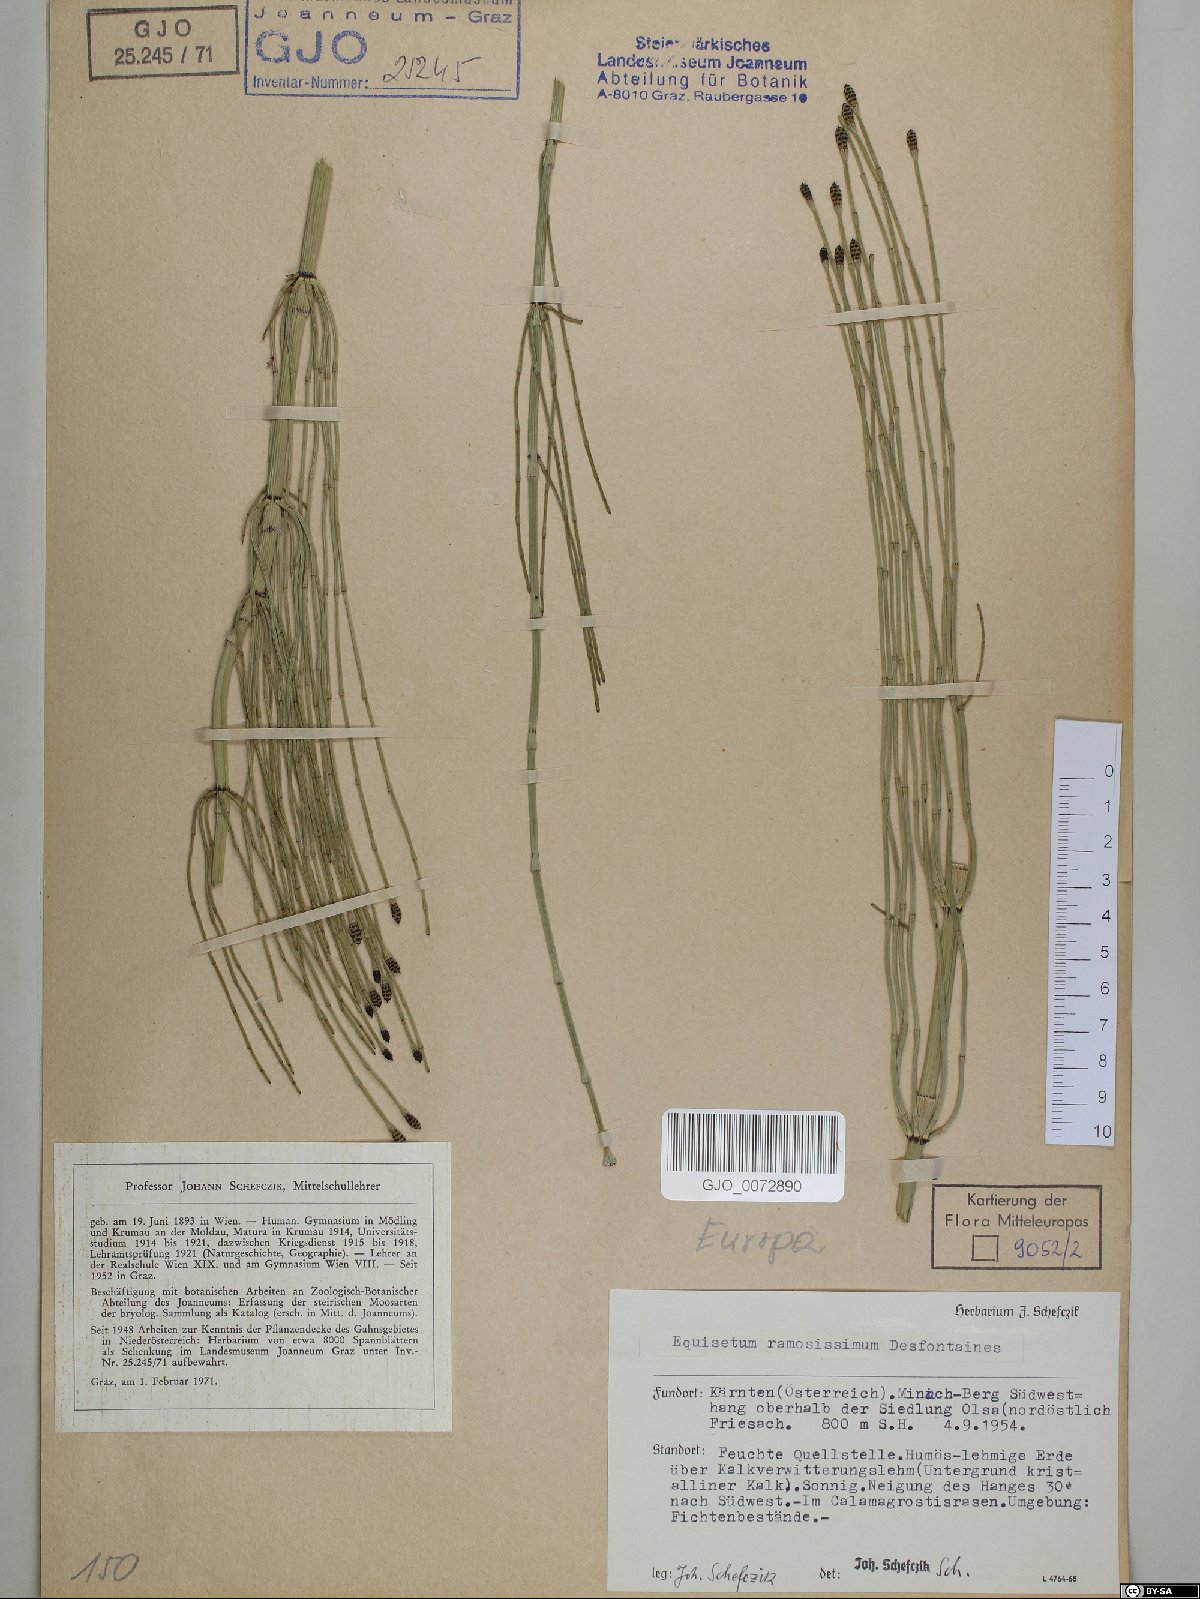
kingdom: Plantae
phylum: Tracheophyta
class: Polypodiopsida
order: Equisetales
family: Equisetaceae
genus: Equisetum
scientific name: Equisetum ramosissimum
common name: Branched horsetail
